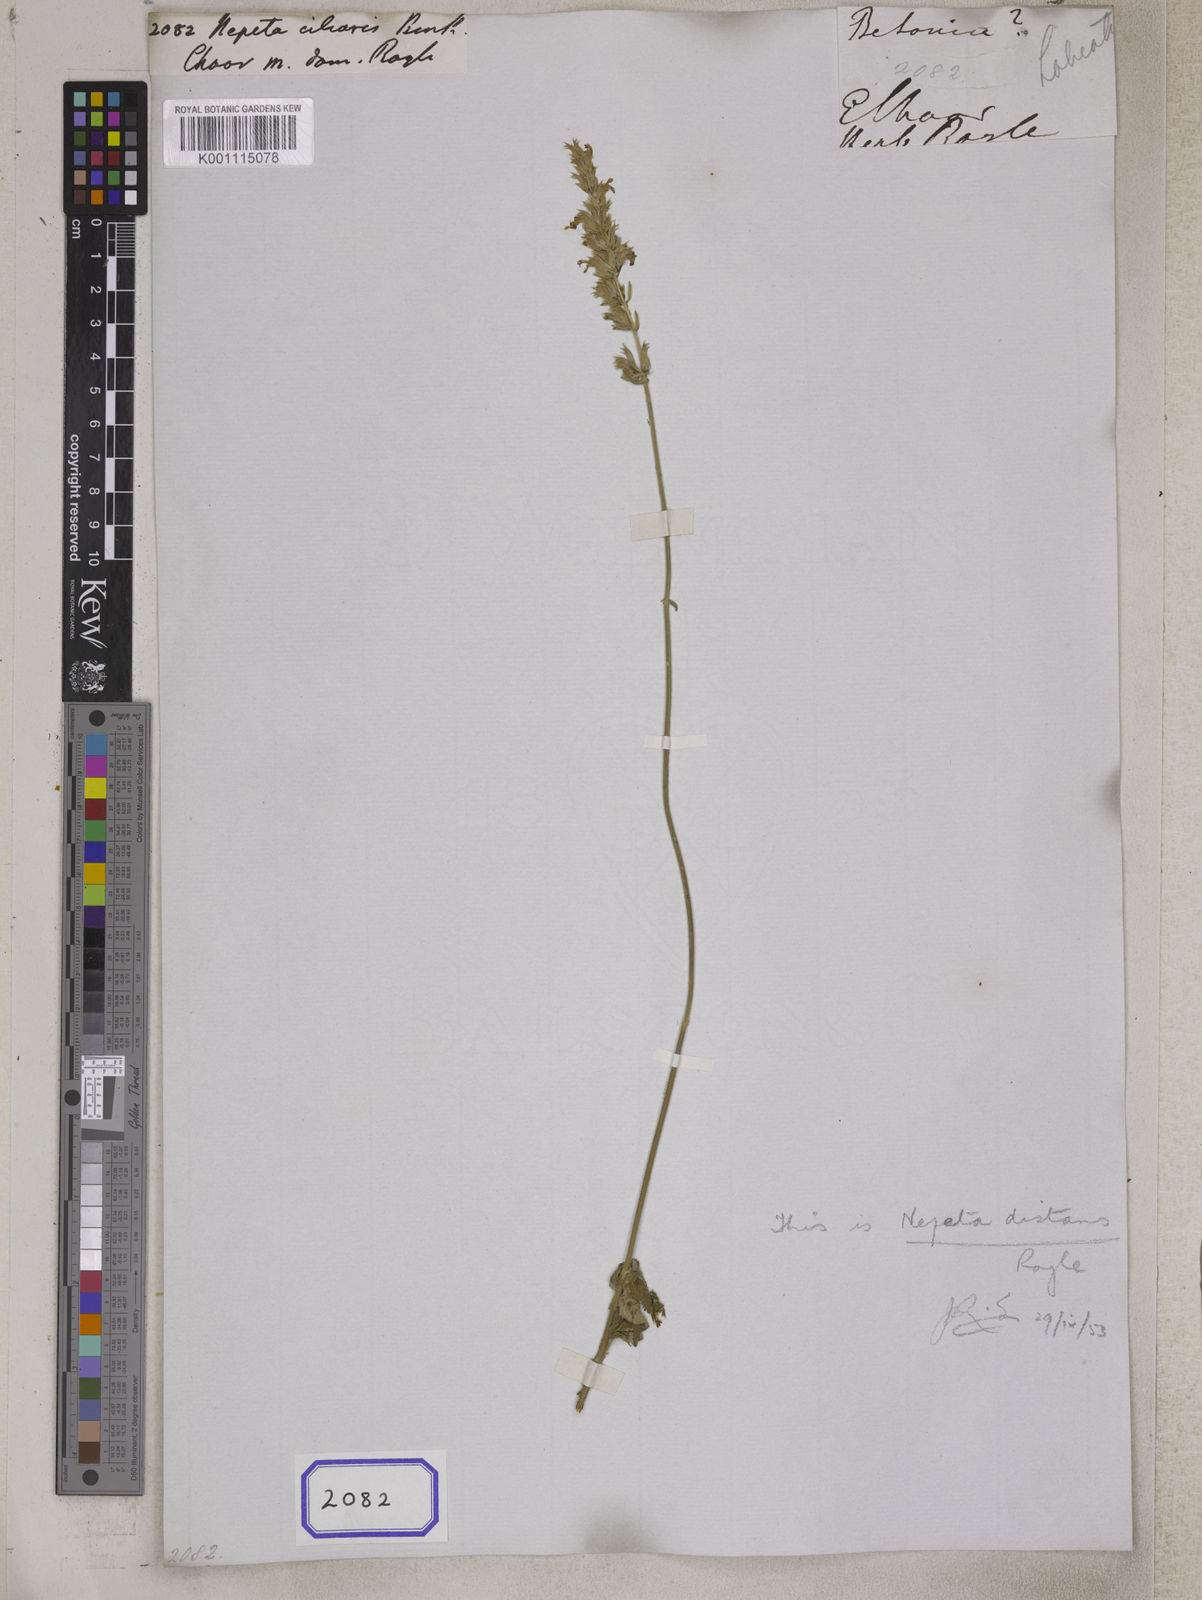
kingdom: Plantae
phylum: Tracheophyta
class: Magnoliopsida
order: Lamiales
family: Lamiaceae
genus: Nepeta
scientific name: Nepeta ciliaris
